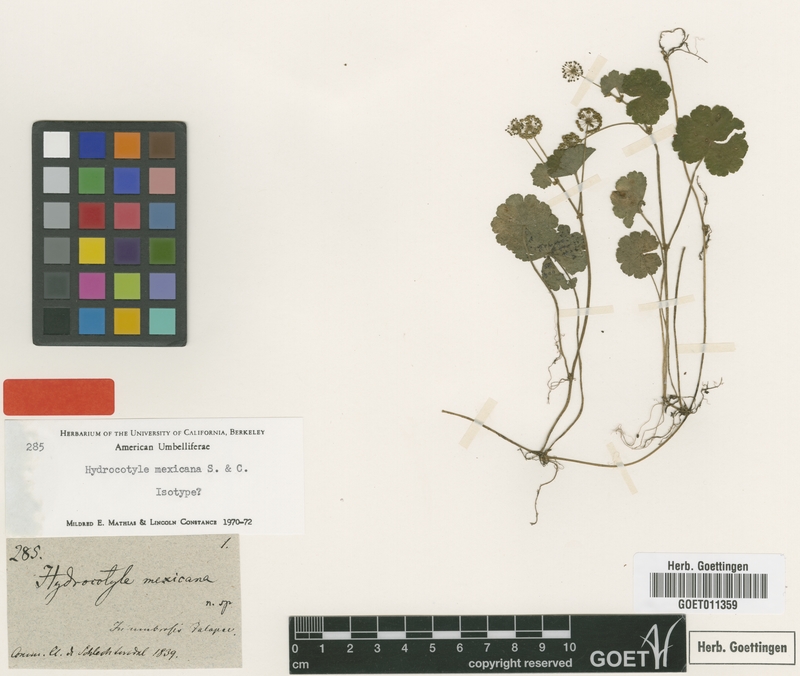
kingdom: Plantae
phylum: Tracheophyta
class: Magnoliopsida
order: Apiales
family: Araliaceae
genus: Hydrocotyle
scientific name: Hydrocotyle mexicana
